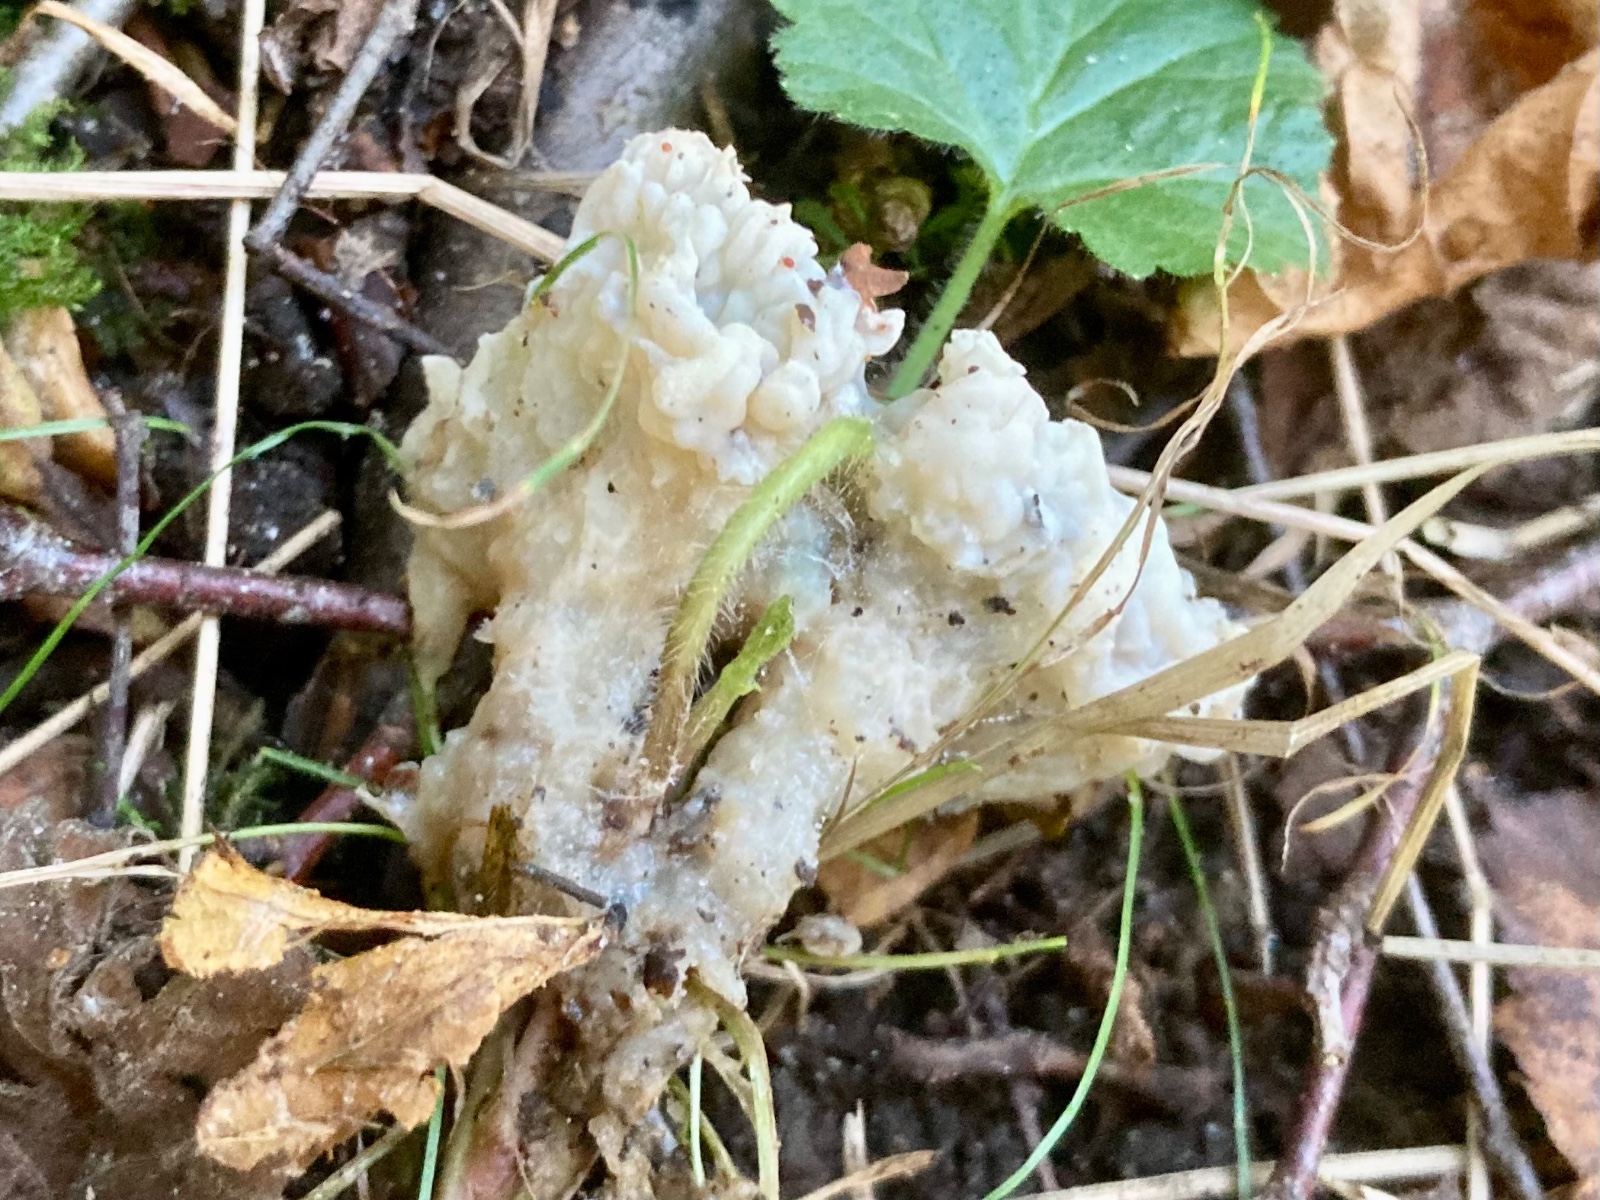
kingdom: Fungi
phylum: Basidiomycota
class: Agaricomycetes
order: Sebacinales
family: Sebacinaceae
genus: Sebacina
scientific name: Sebacina
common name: bævretalg
